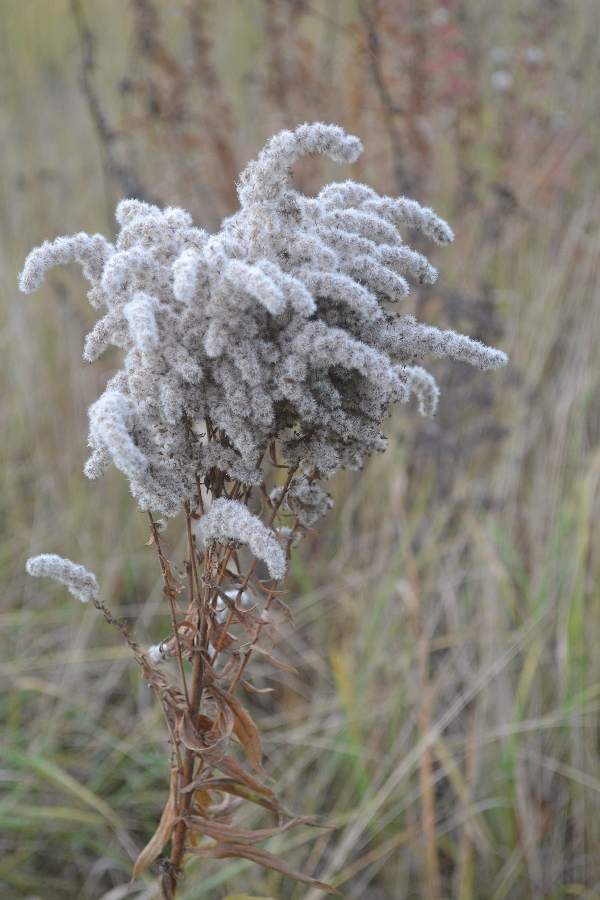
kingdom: Plantae
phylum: Tracheophyta
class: Magnoliopsida
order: Asterales
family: Asteraceae
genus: Solidago
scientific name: Solidago gigantea
